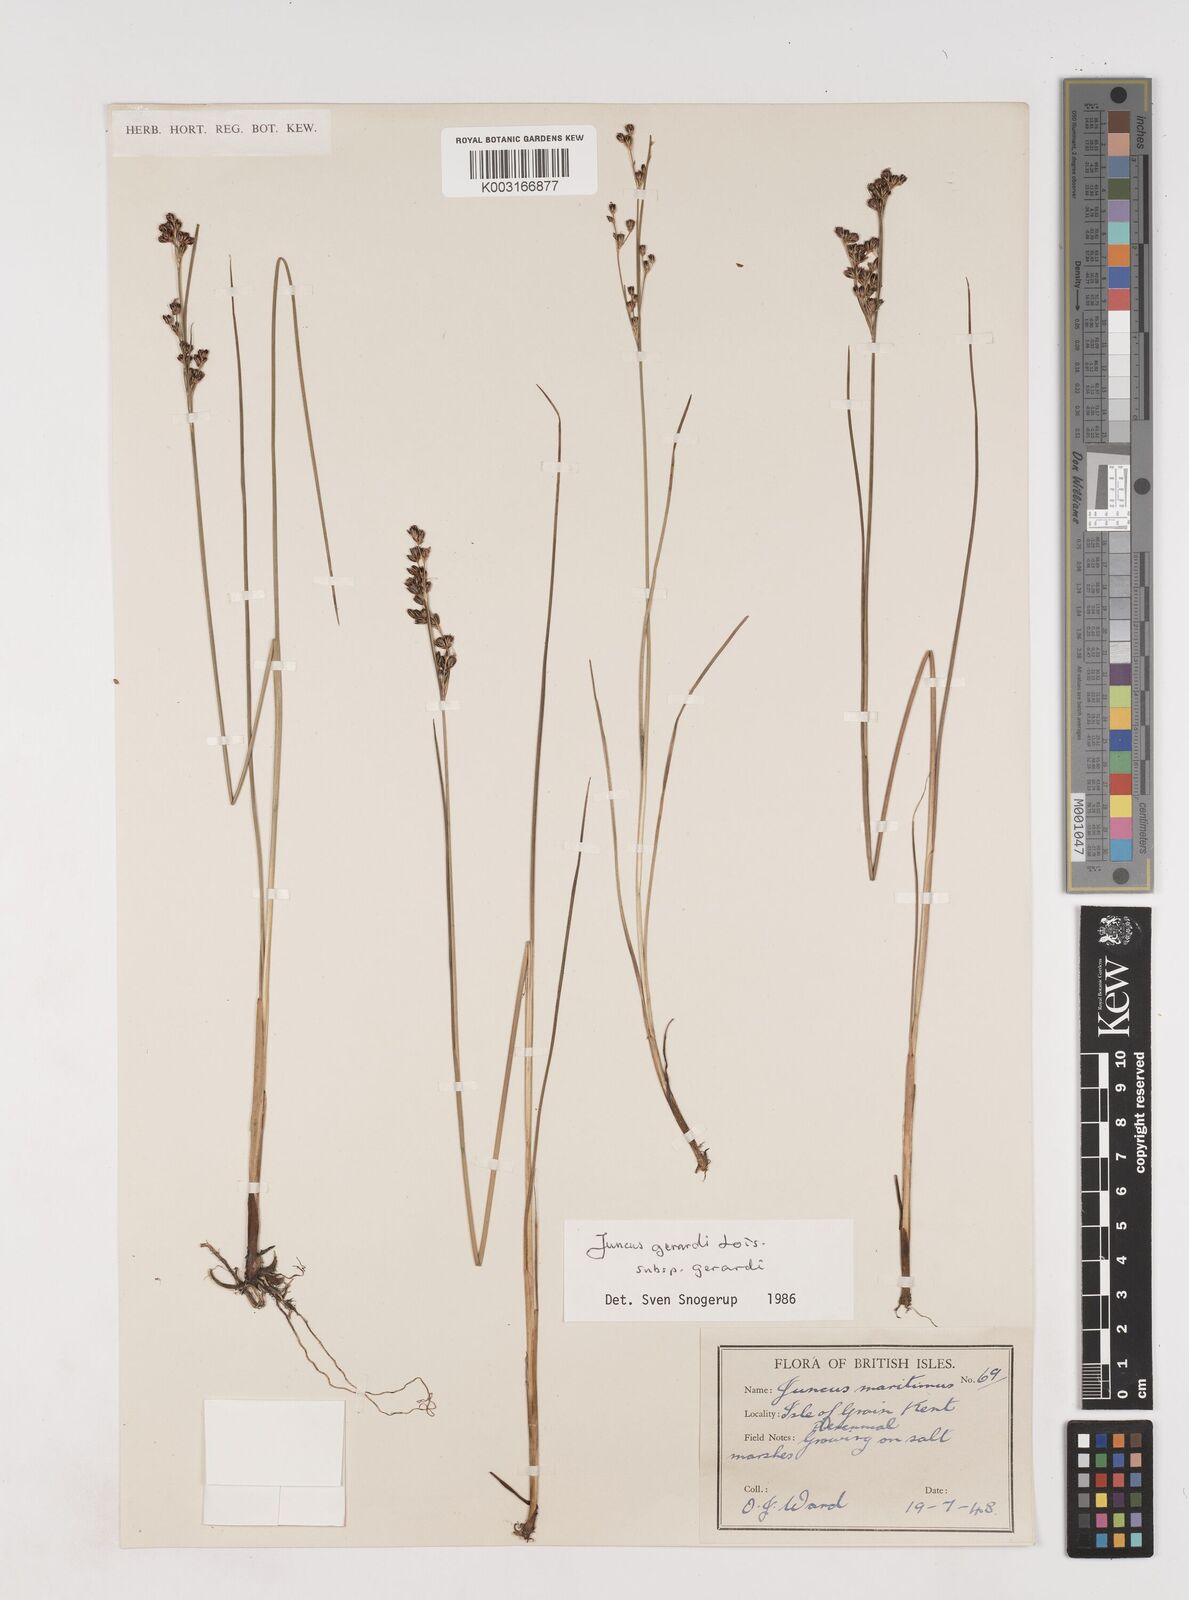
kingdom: Plantae
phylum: Tracheophyta
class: Liliopsida
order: Poales
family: Juncaceae
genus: Juncus
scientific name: Juncus gerardi
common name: Saltmarsh rush
